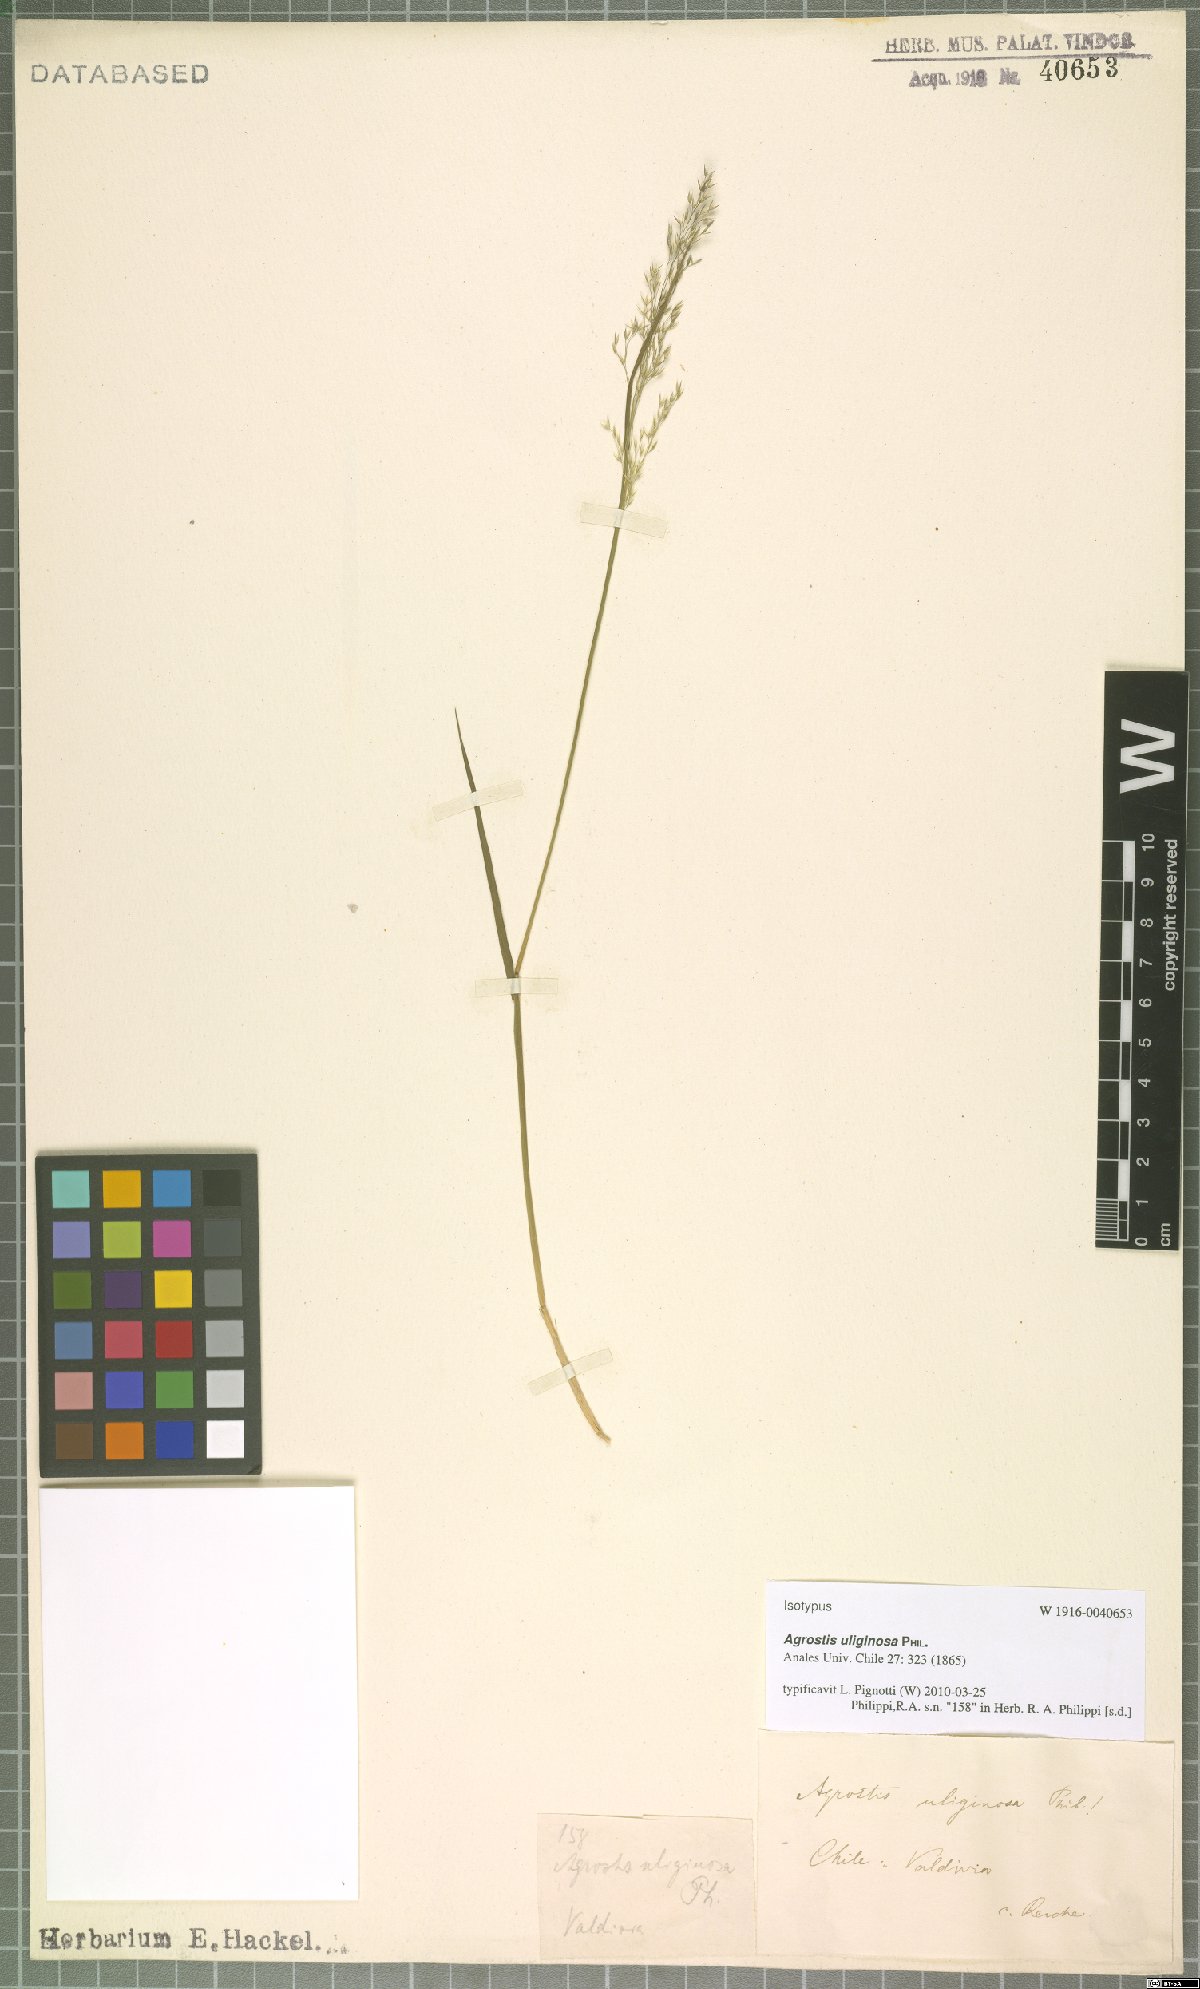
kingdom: Plantae
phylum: Tracheophyta
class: Liliopsida
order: Poales
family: Poaceae
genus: Agrostis
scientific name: Agrostis uliginosa
